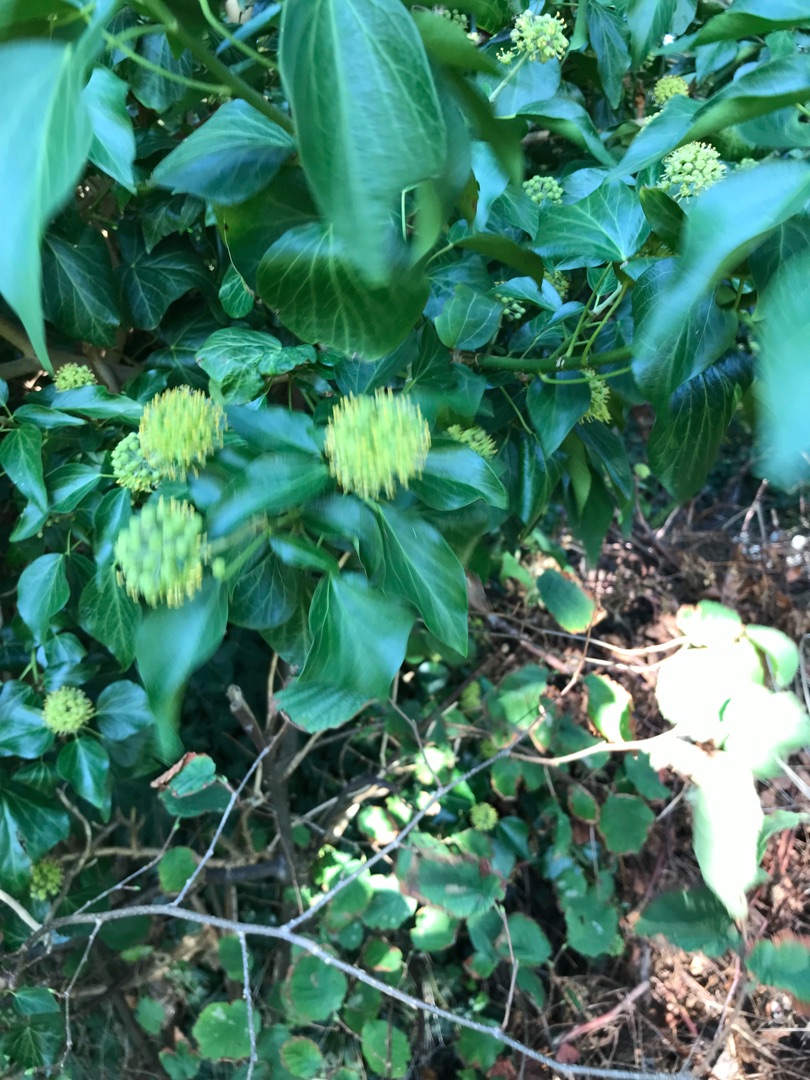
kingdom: Plantae
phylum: Tracheophyta
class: Magnoliopsida
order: Apiales
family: Araliaceae
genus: Hedera
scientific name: Hedera helix
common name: Vedbend
